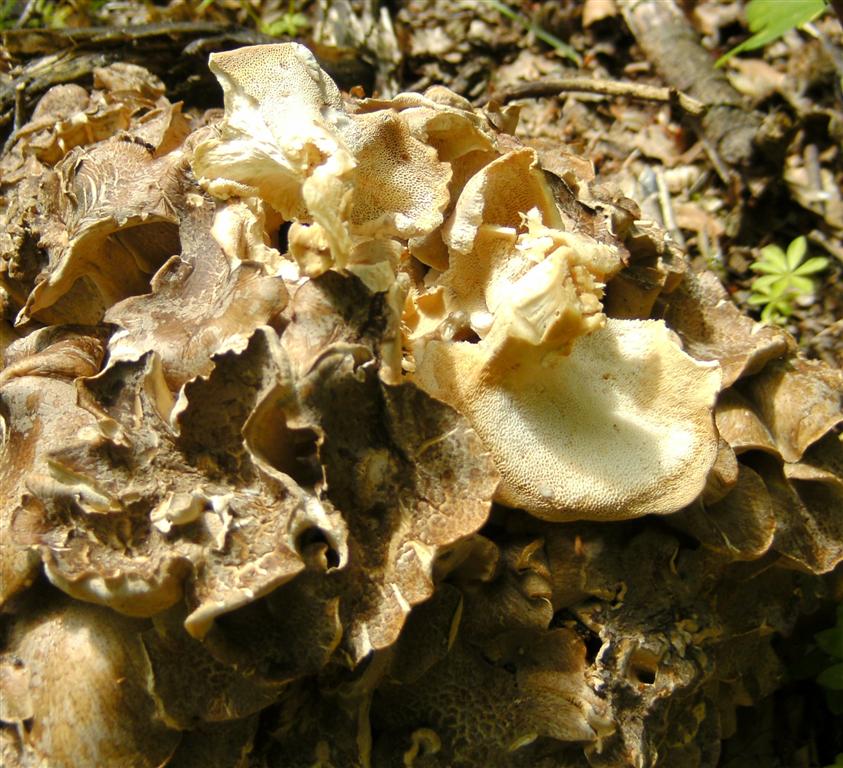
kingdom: Fungi
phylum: Basidiomycota
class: Agaricomycetes
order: Polyporales
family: Polyporaceae
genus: Polyporus
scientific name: Polyporus umbellatus
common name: skærmformet stilkporesvamp
